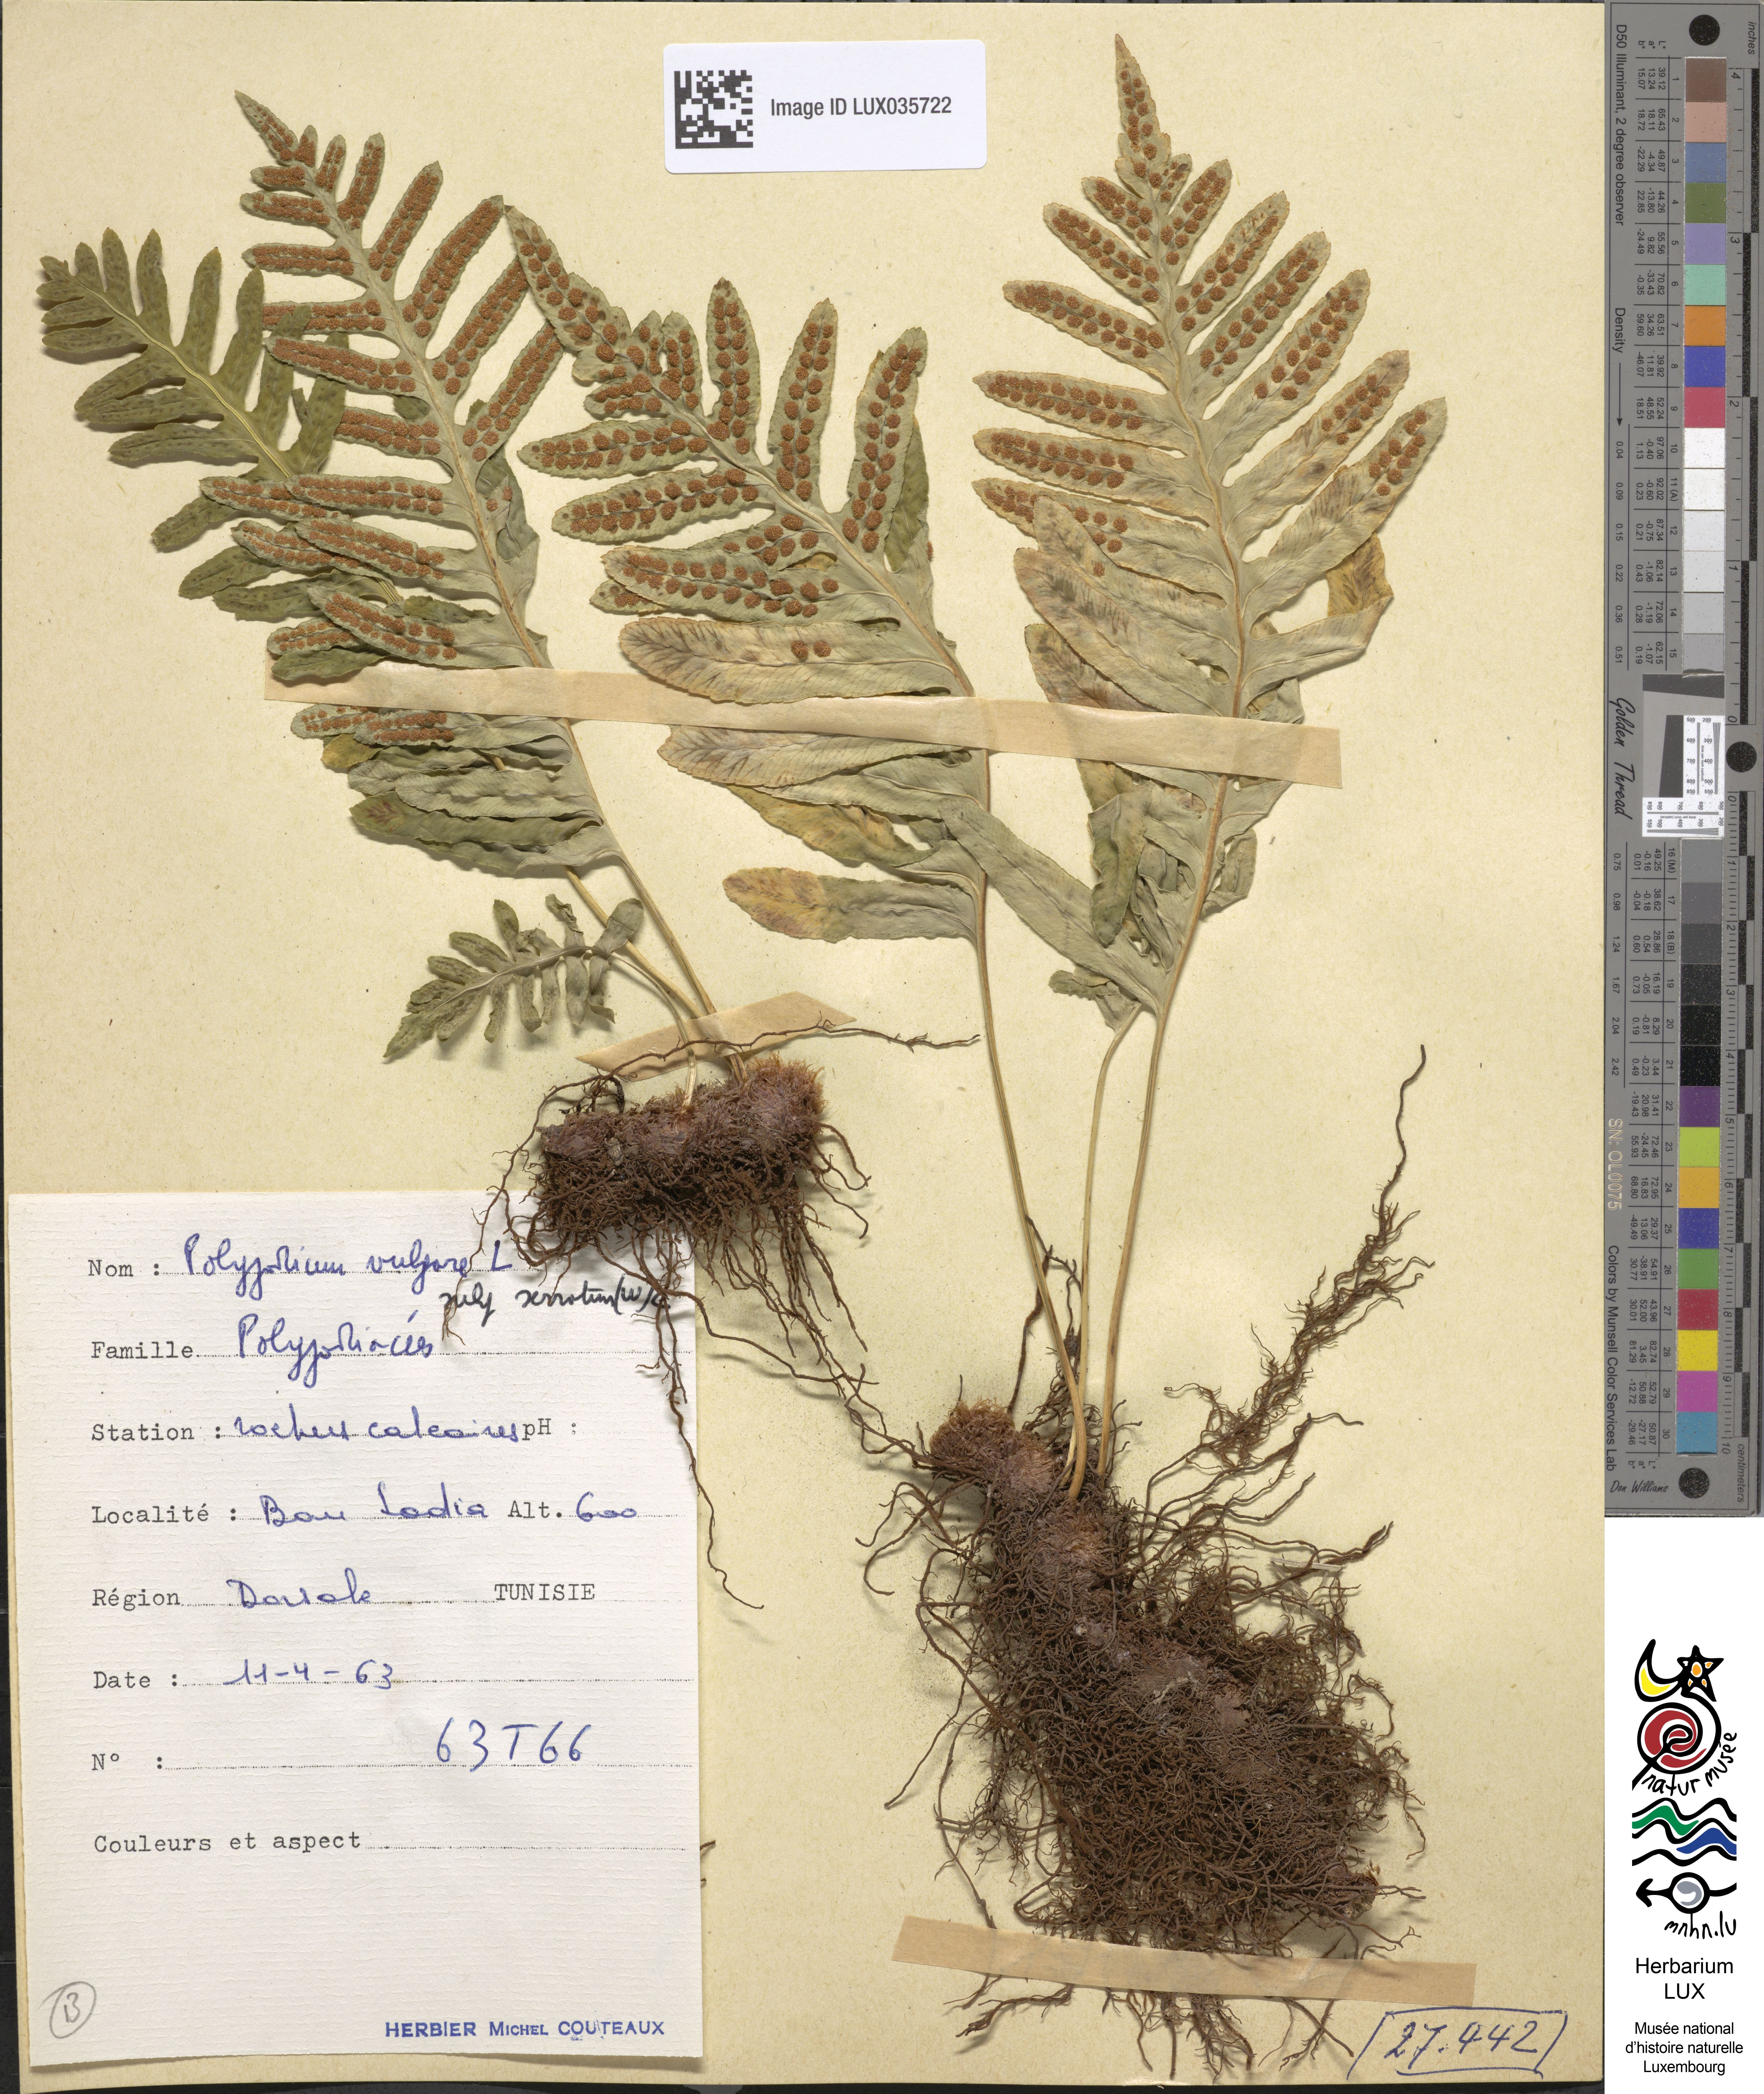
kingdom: Plantae
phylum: Tracheophyta
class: Polypodiopsida
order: Polypodiales
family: Polypodiaceae
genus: Polypodium
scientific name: Polypodium cambricum
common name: Southern polypody
